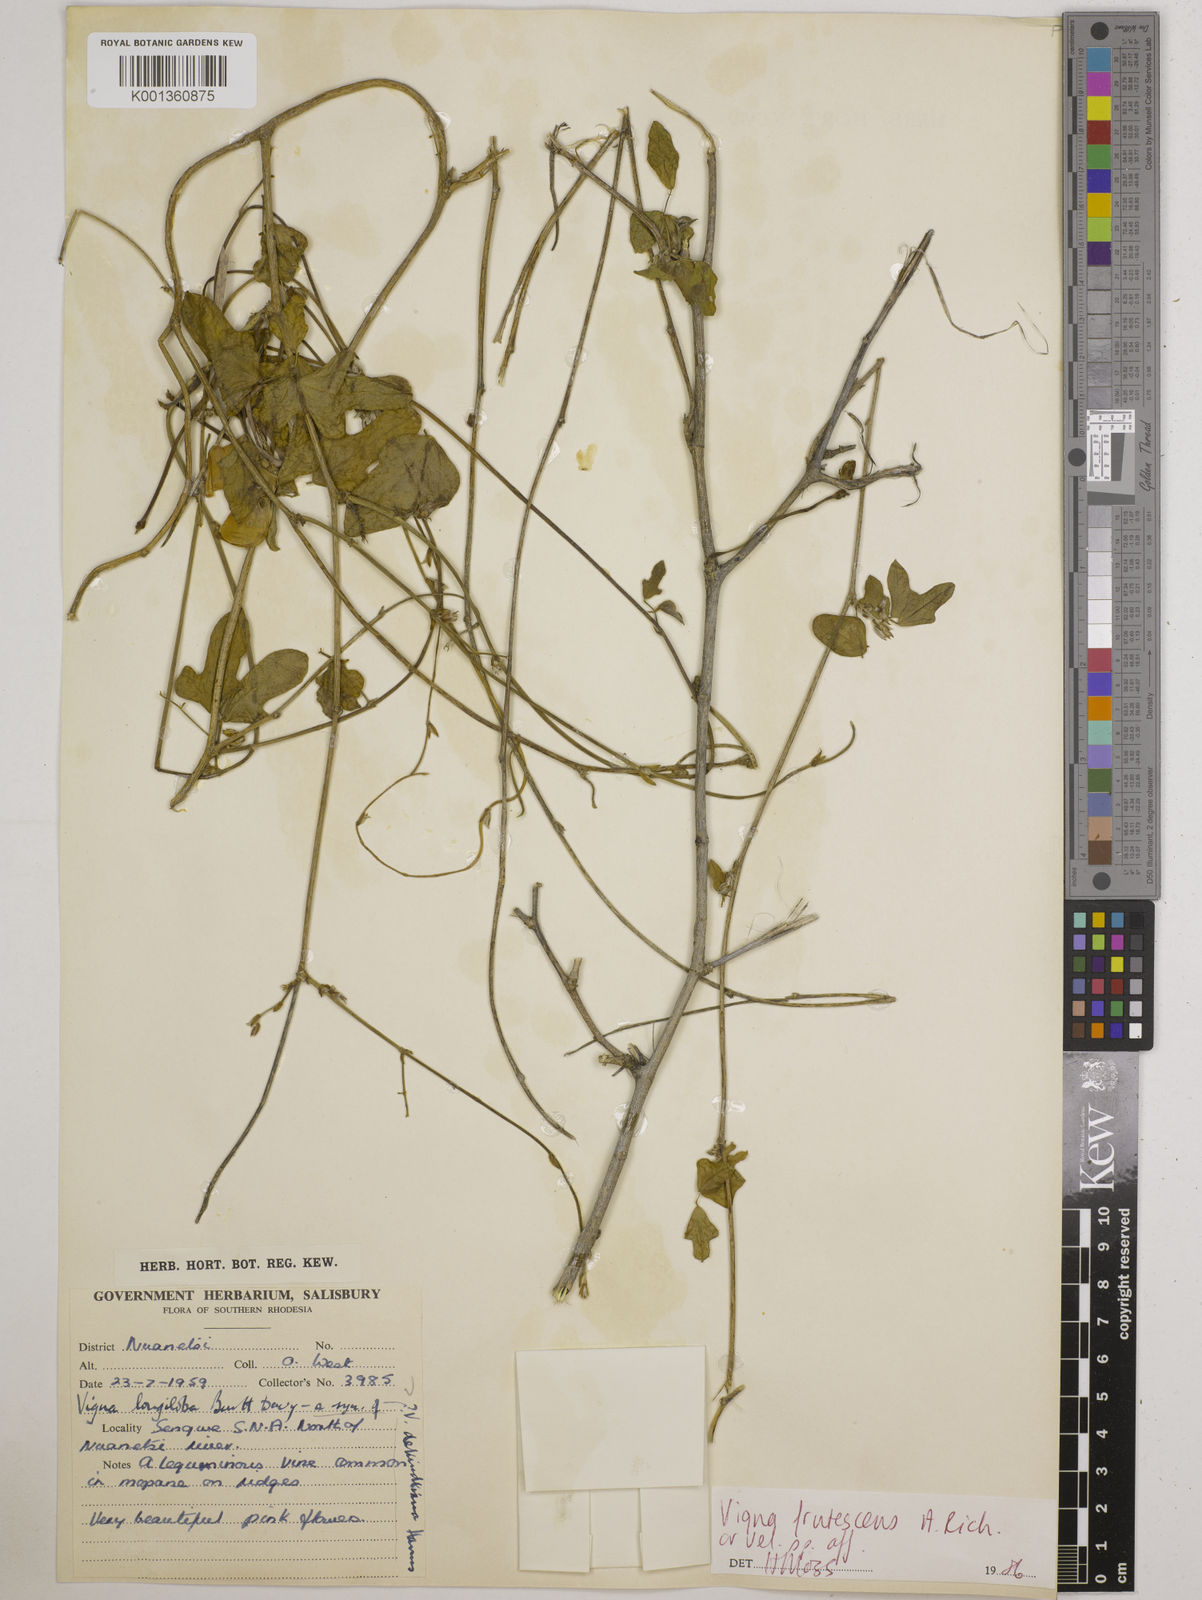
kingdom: Plantae
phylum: Tracheophyta
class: Magnoliopsida
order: Fabales
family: Fabaceae
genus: Vigna
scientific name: Vigna
